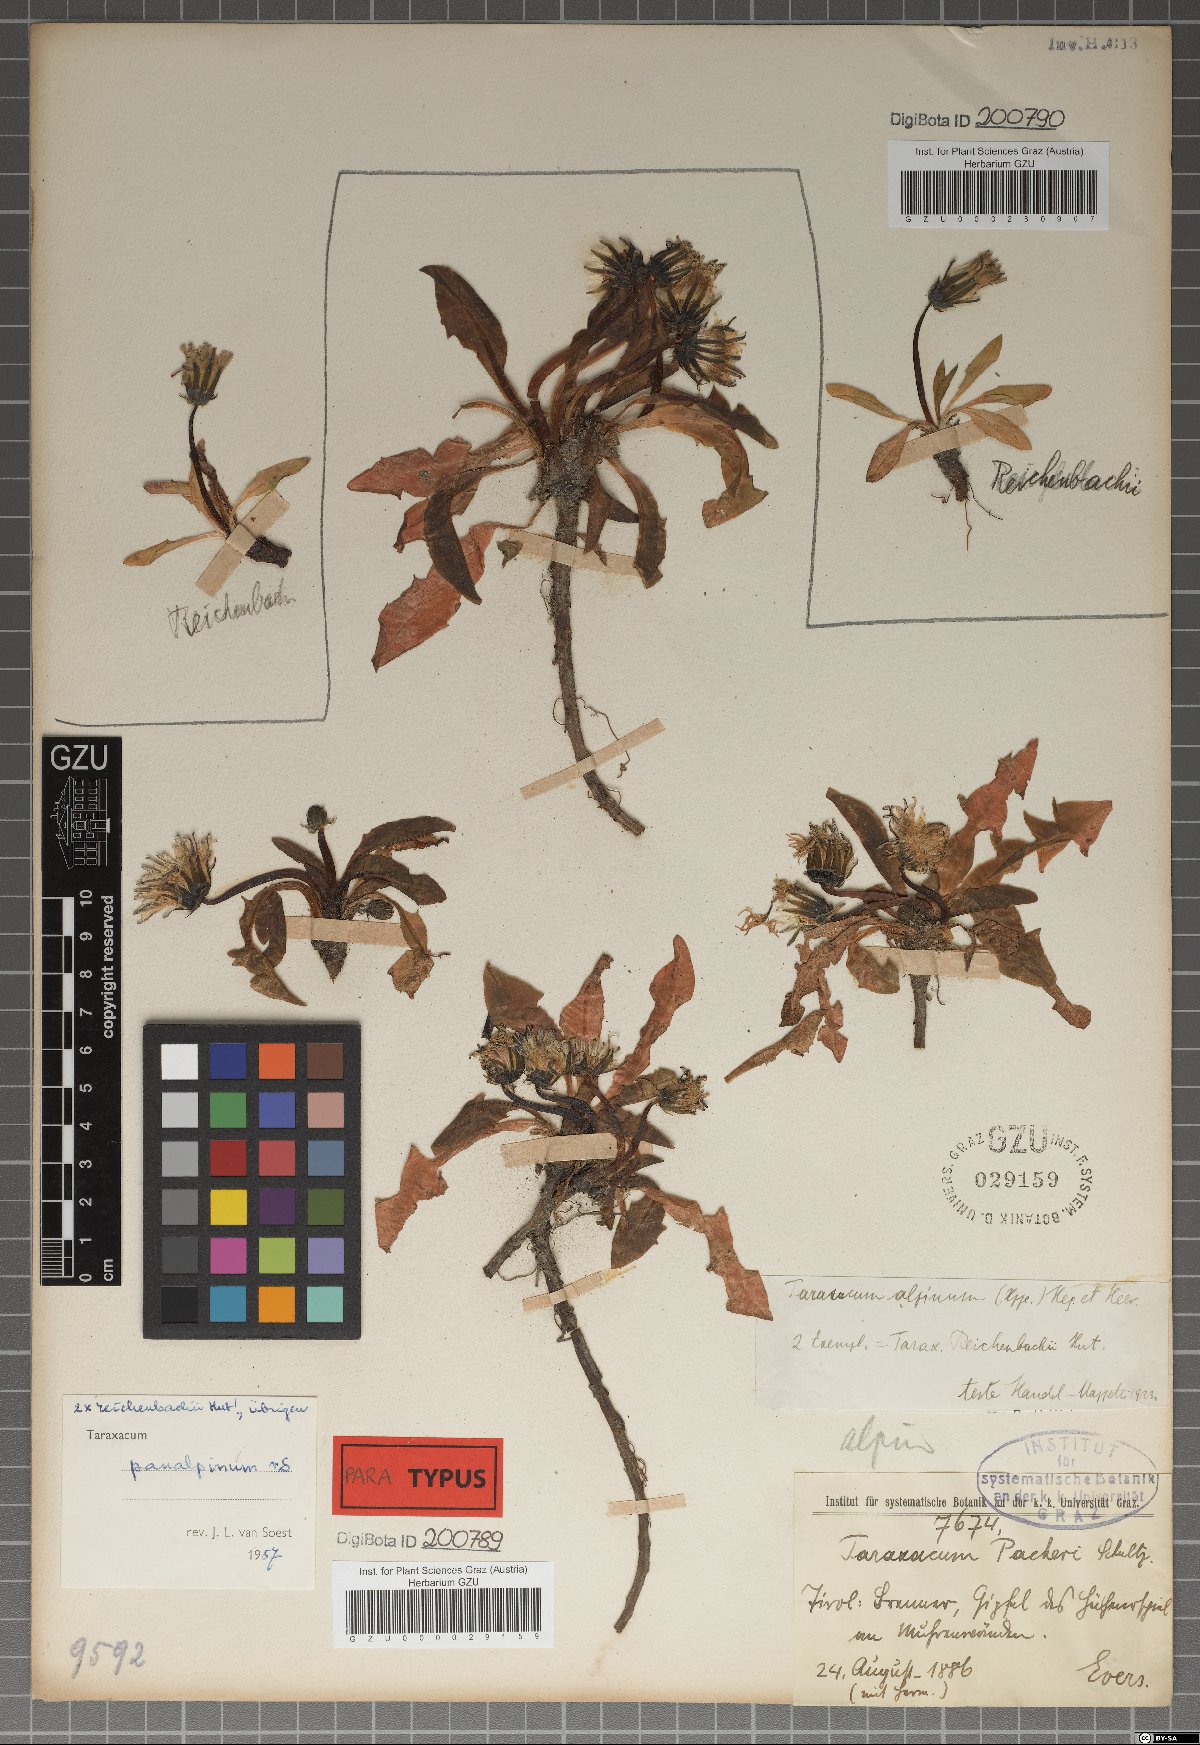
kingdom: Plantae
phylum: Tracheophyta
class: Magnoliopsida
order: Asterales
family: Asteraceae
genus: Taraxacum
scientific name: Taraxacum panalpinum
